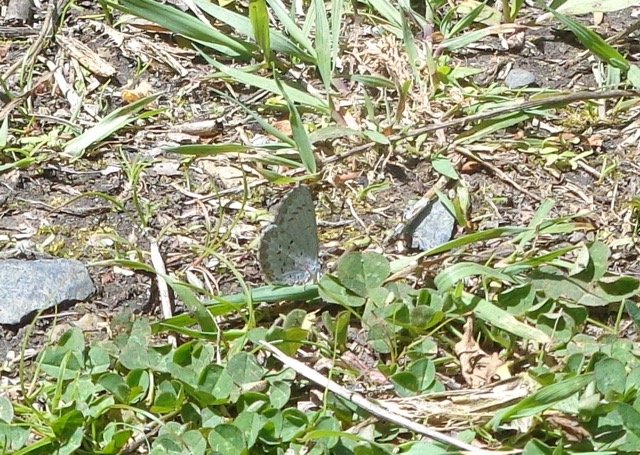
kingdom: Animalia
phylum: Arthropoda
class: Insecta
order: Lepidoptera
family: Lycaenidae
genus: Celastrina
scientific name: Celastrina lucia
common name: Northern Spring Azure
